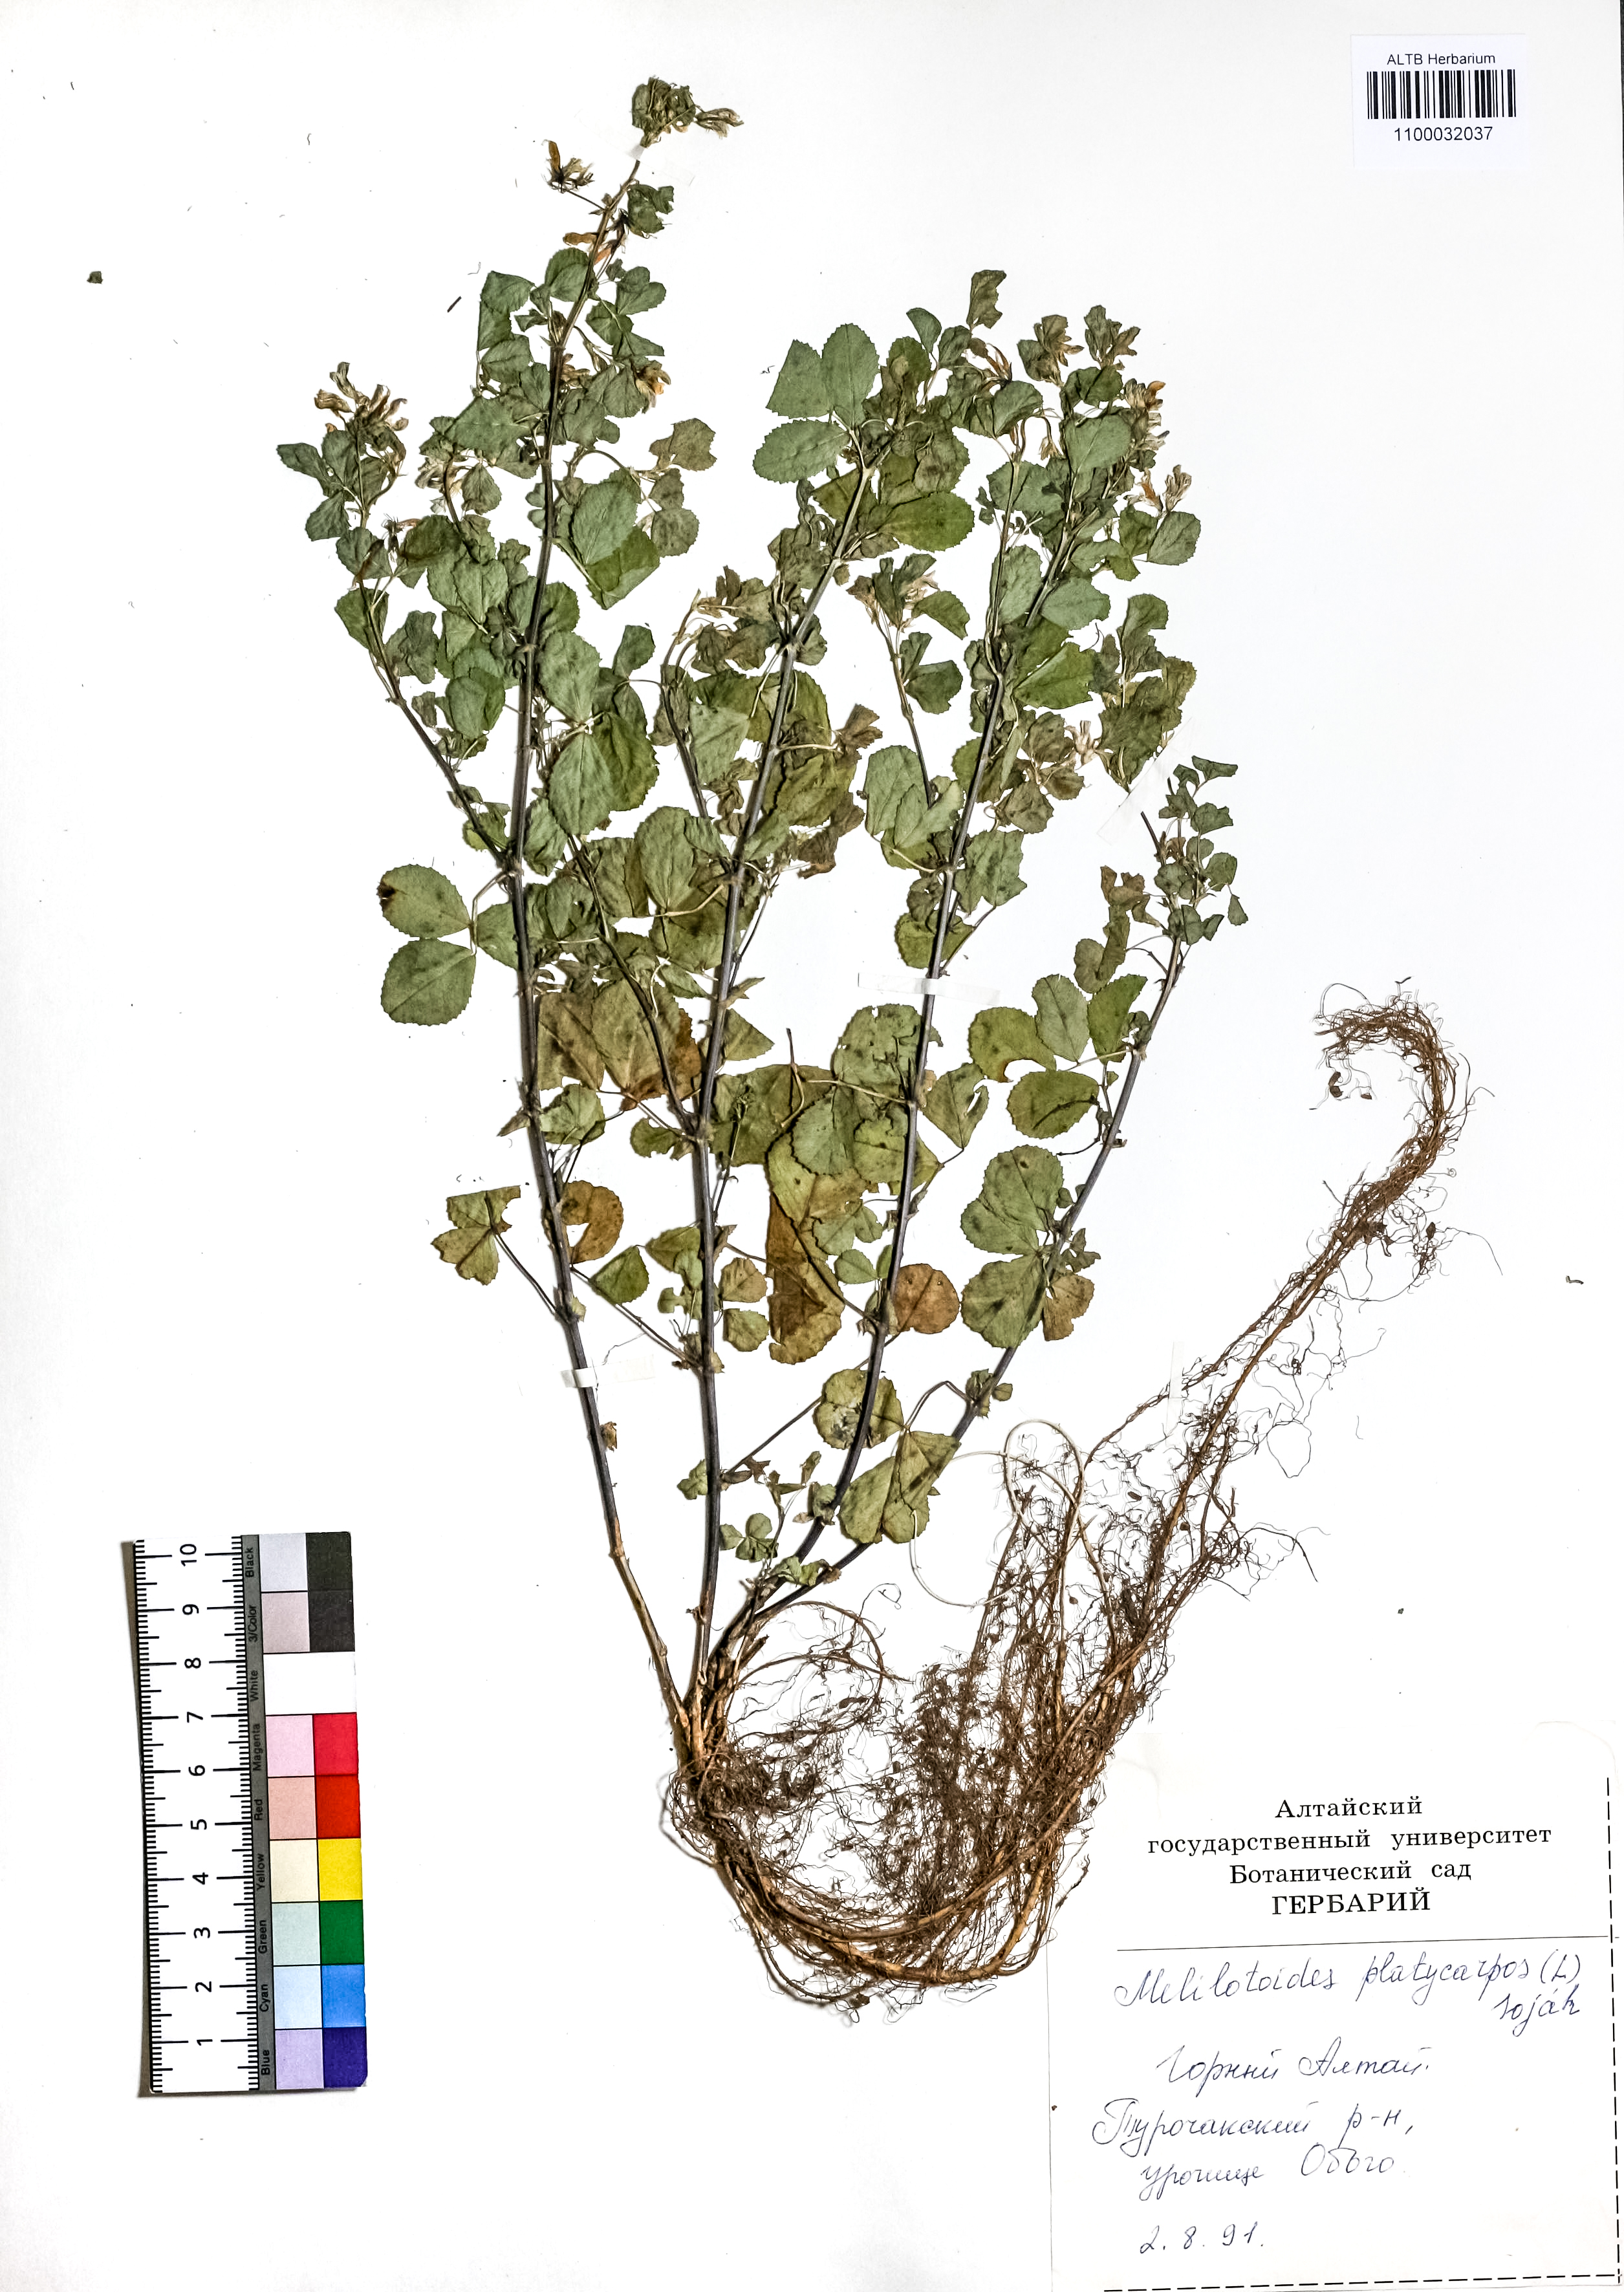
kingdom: Plantae
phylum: Tracheophyta
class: Magnoliopsida
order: Fabales
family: Fabaceae
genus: Medicago
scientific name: Medicago platycarpos
